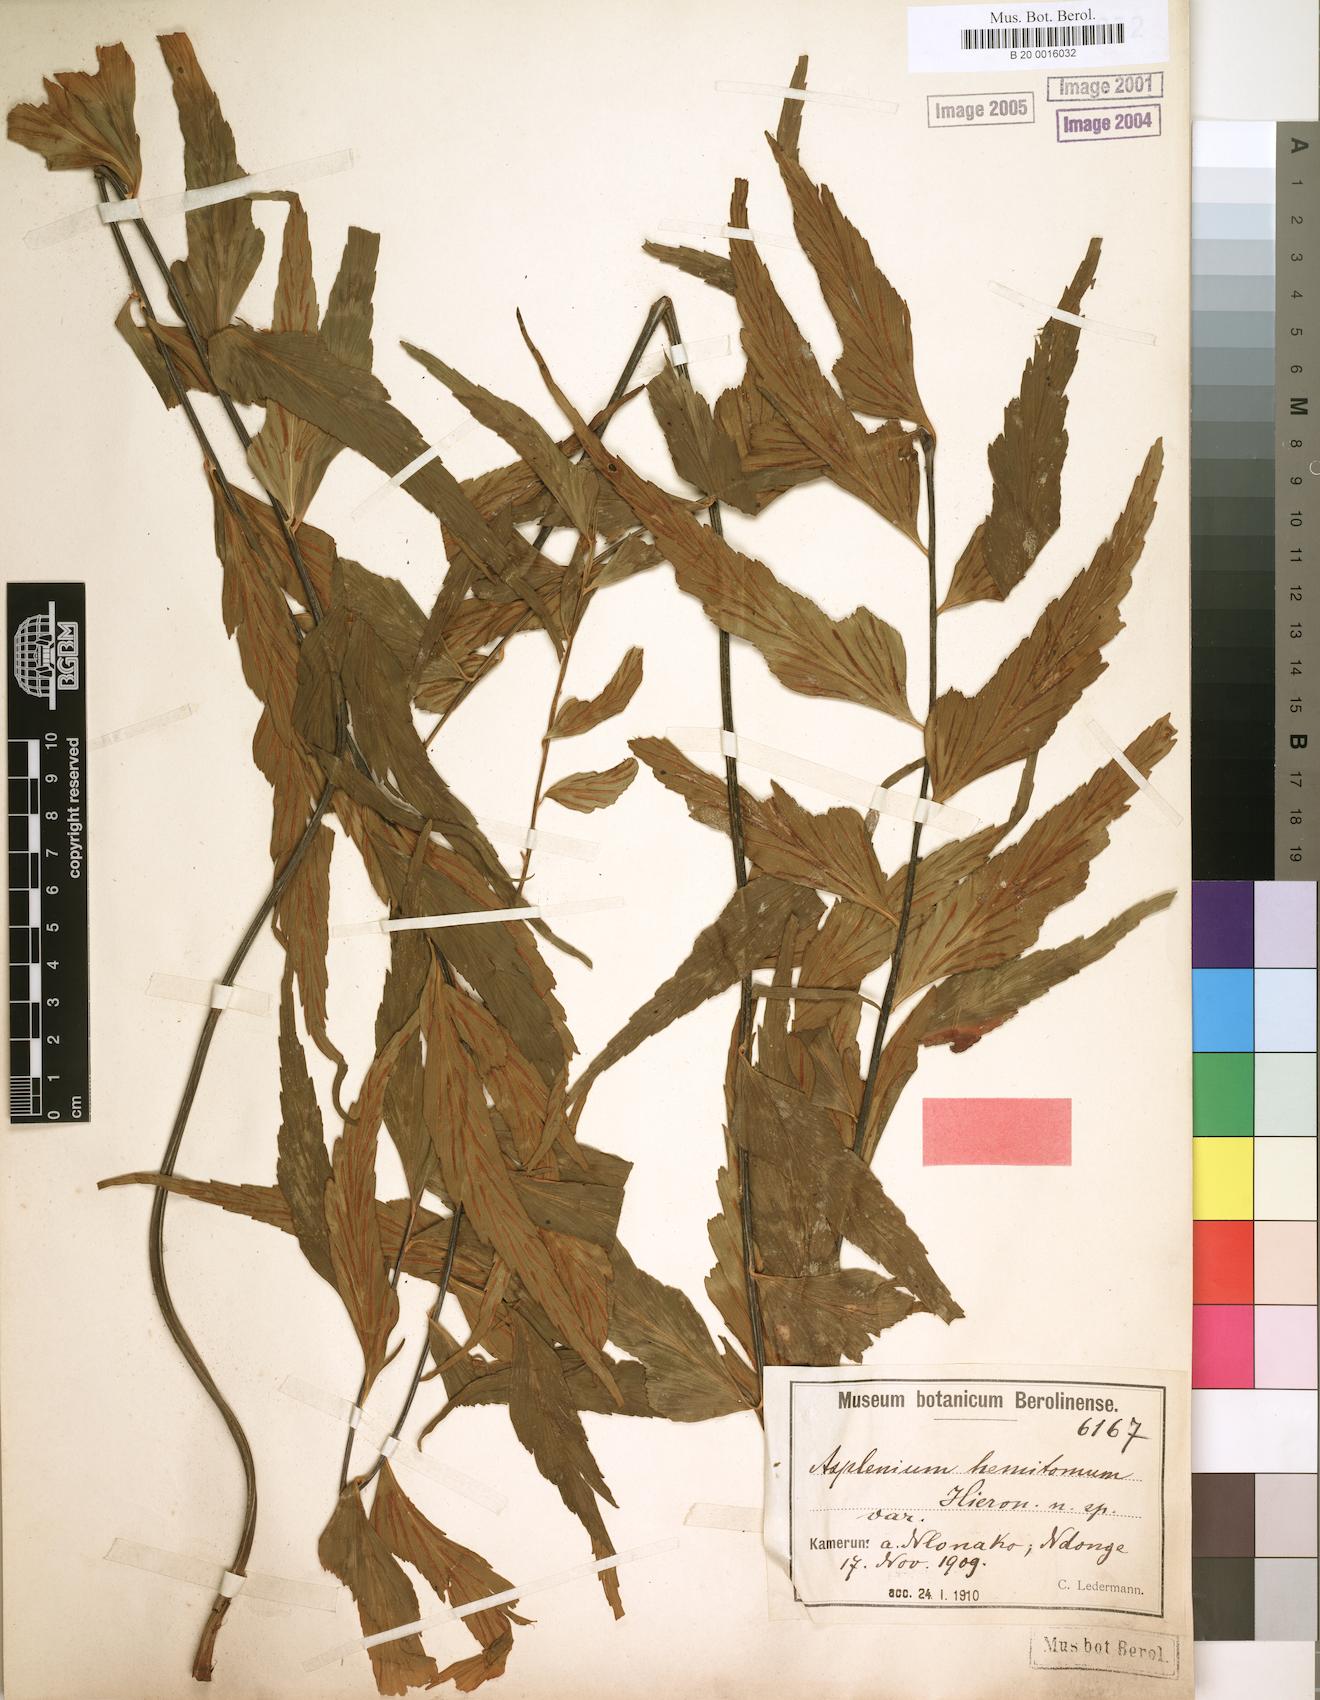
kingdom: Plantae
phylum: Tracheophyta
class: Polypodiopsida
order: Polypodiales
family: Aspleniaceae
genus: Asplenium
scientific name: Asplenium hemitomum
